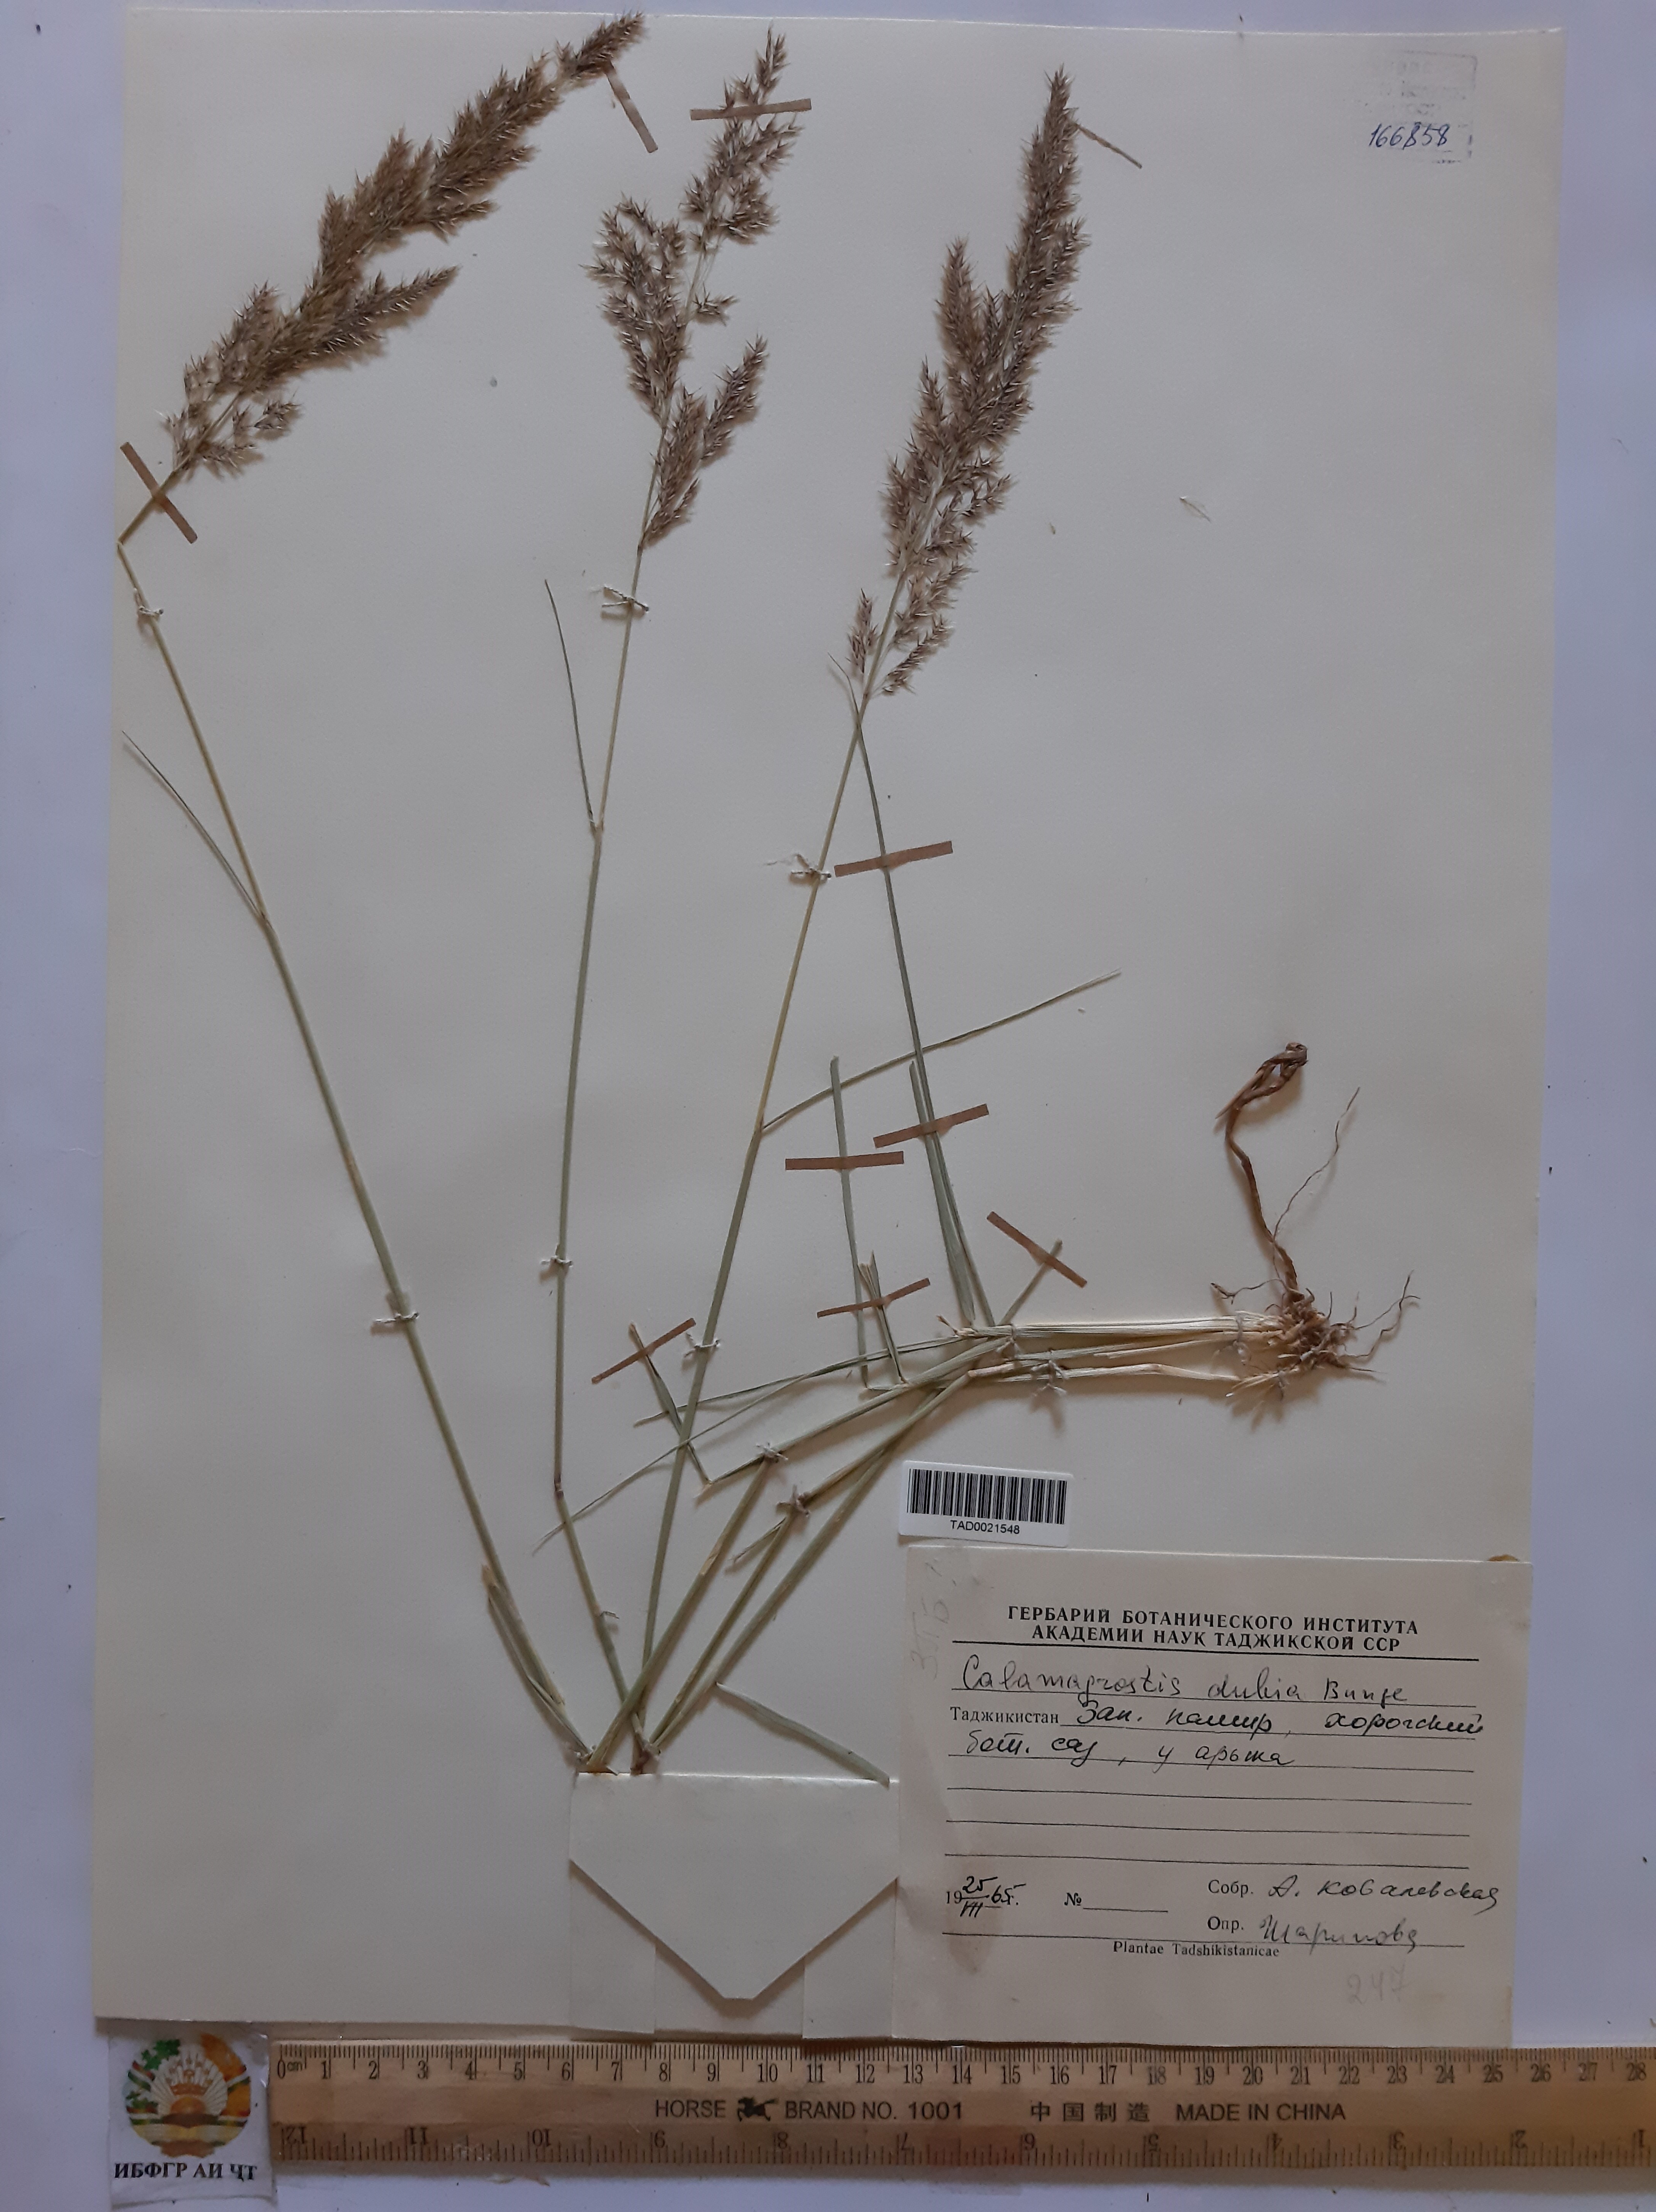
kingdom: Plantae
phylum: Tracheophyta
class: Liliopsida
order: Poales
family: Poaceae
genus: Calamagrostis
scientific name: Calamagrostis pseudophragmites
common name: Coastal small-reed
